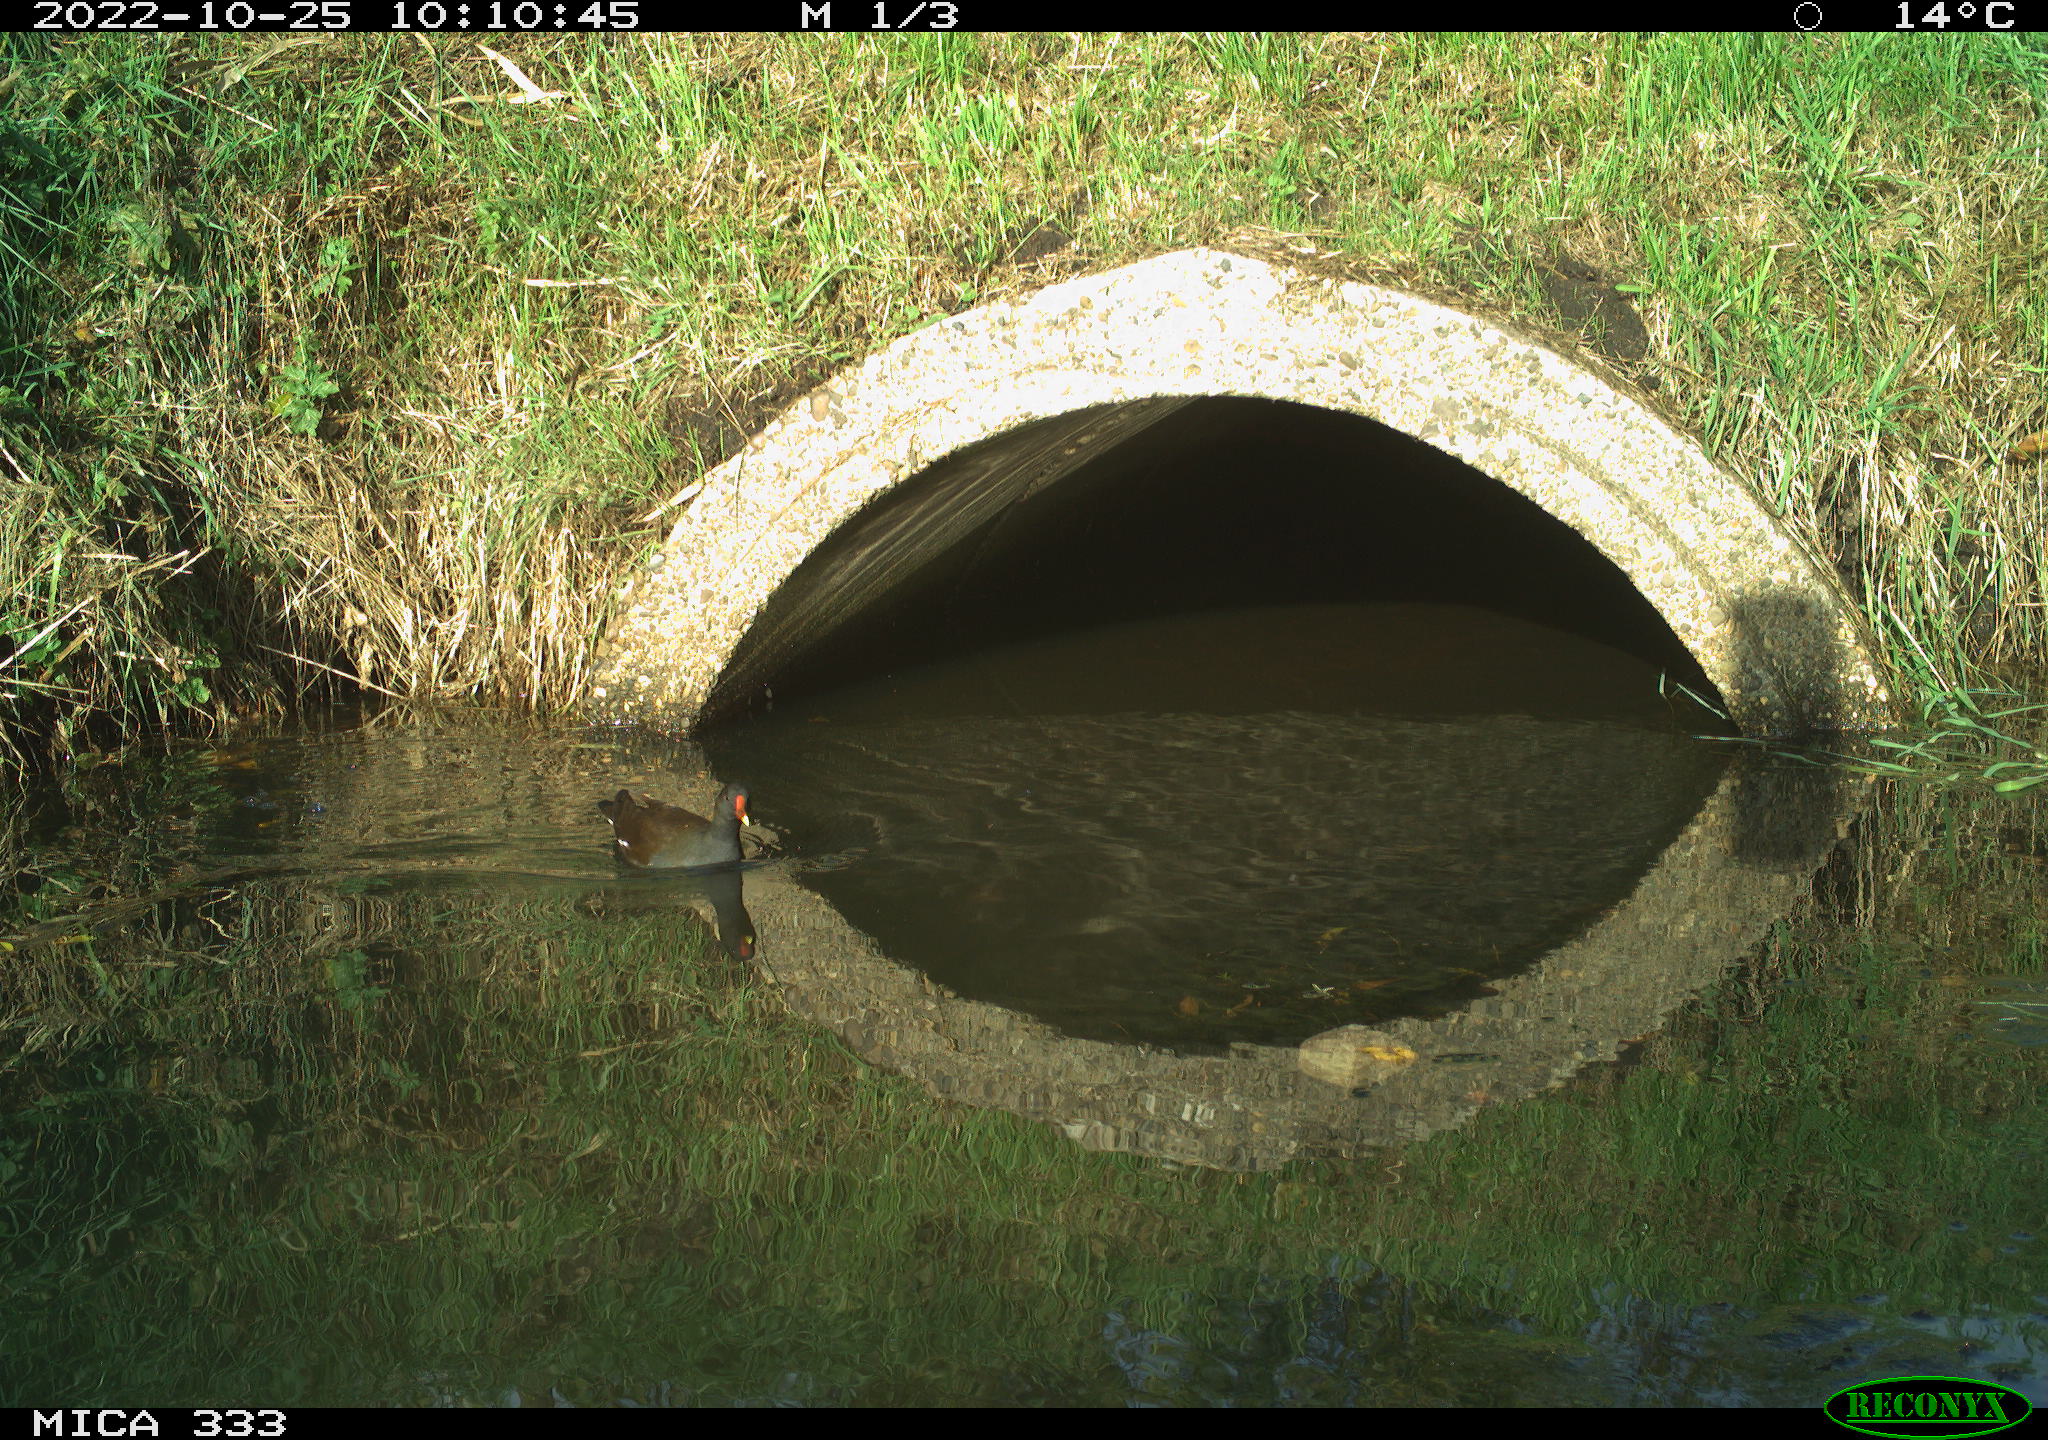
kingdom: Animalia
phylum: Chordata
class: Aves
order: Gruiformes
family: Rallidae
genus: Gallinula
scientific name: Gallinula chloropus
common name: Common moorhen
